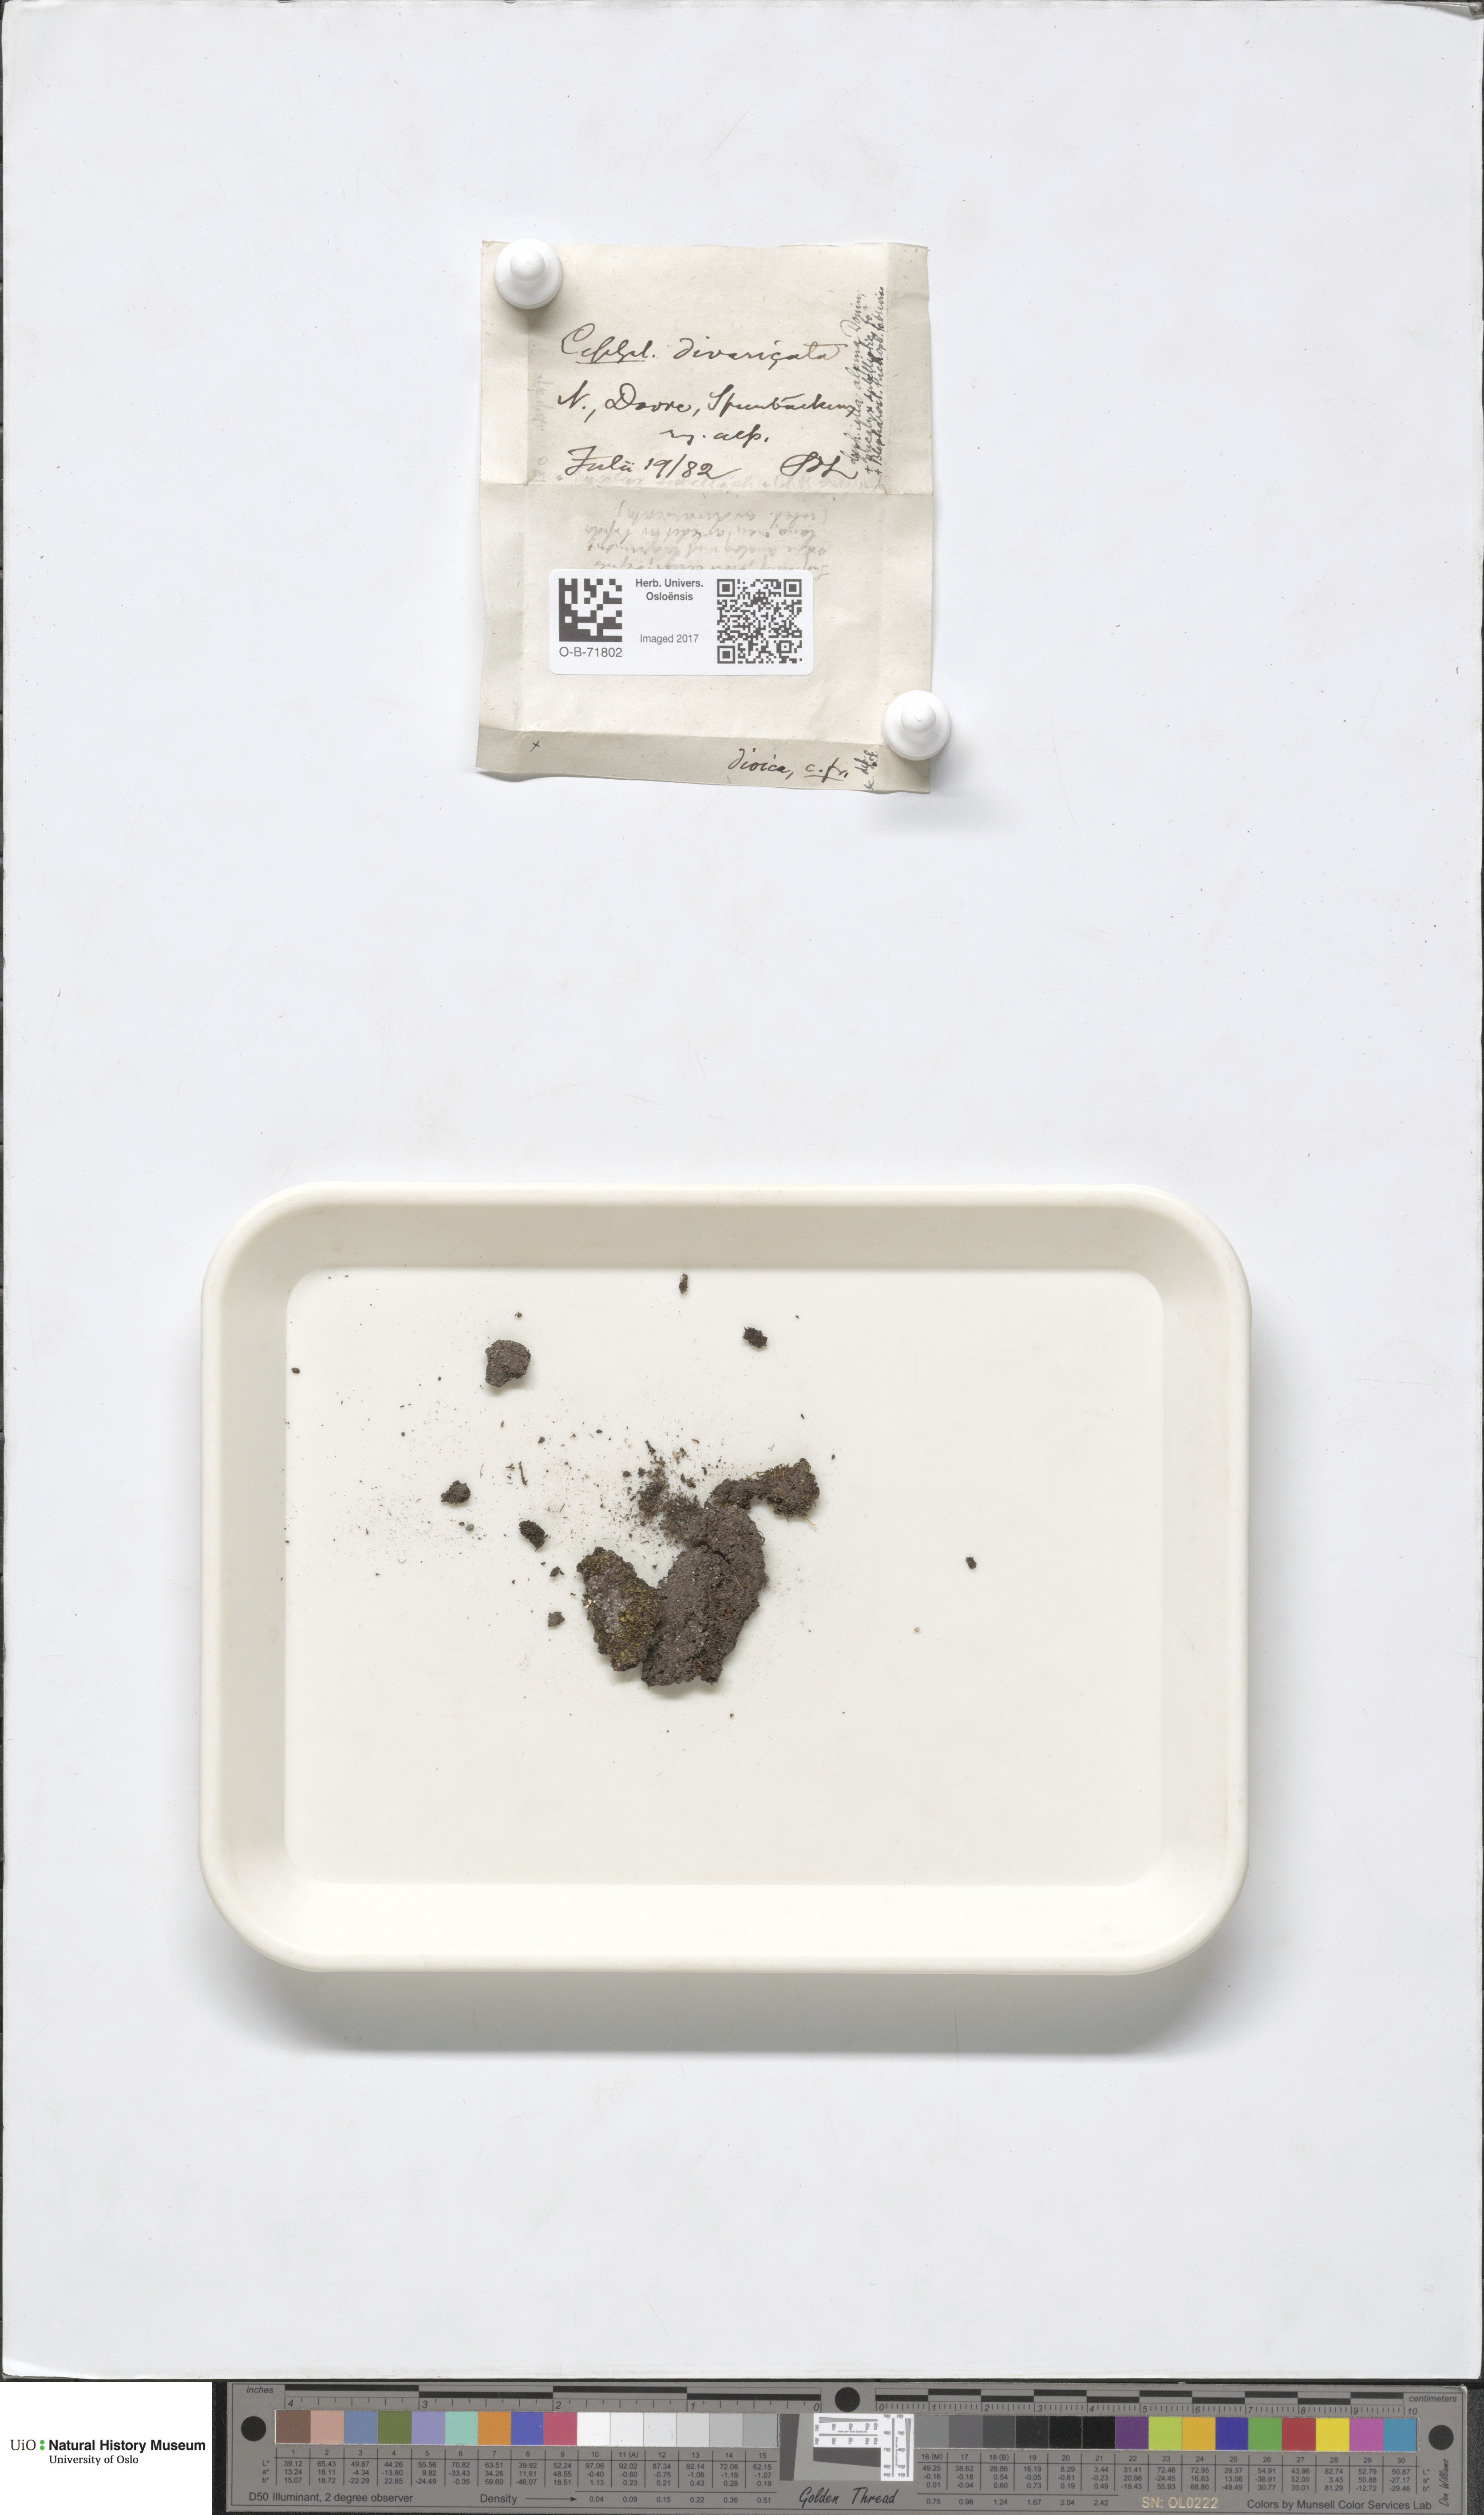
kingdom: Plantae
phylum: Marchantiophyta
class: Jungermanniopsida
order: Jungermanniales
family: Cephaloziellaceae
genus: Cephaloziella
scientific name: Cephaloziella divaricata
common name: Spreading threadwort
